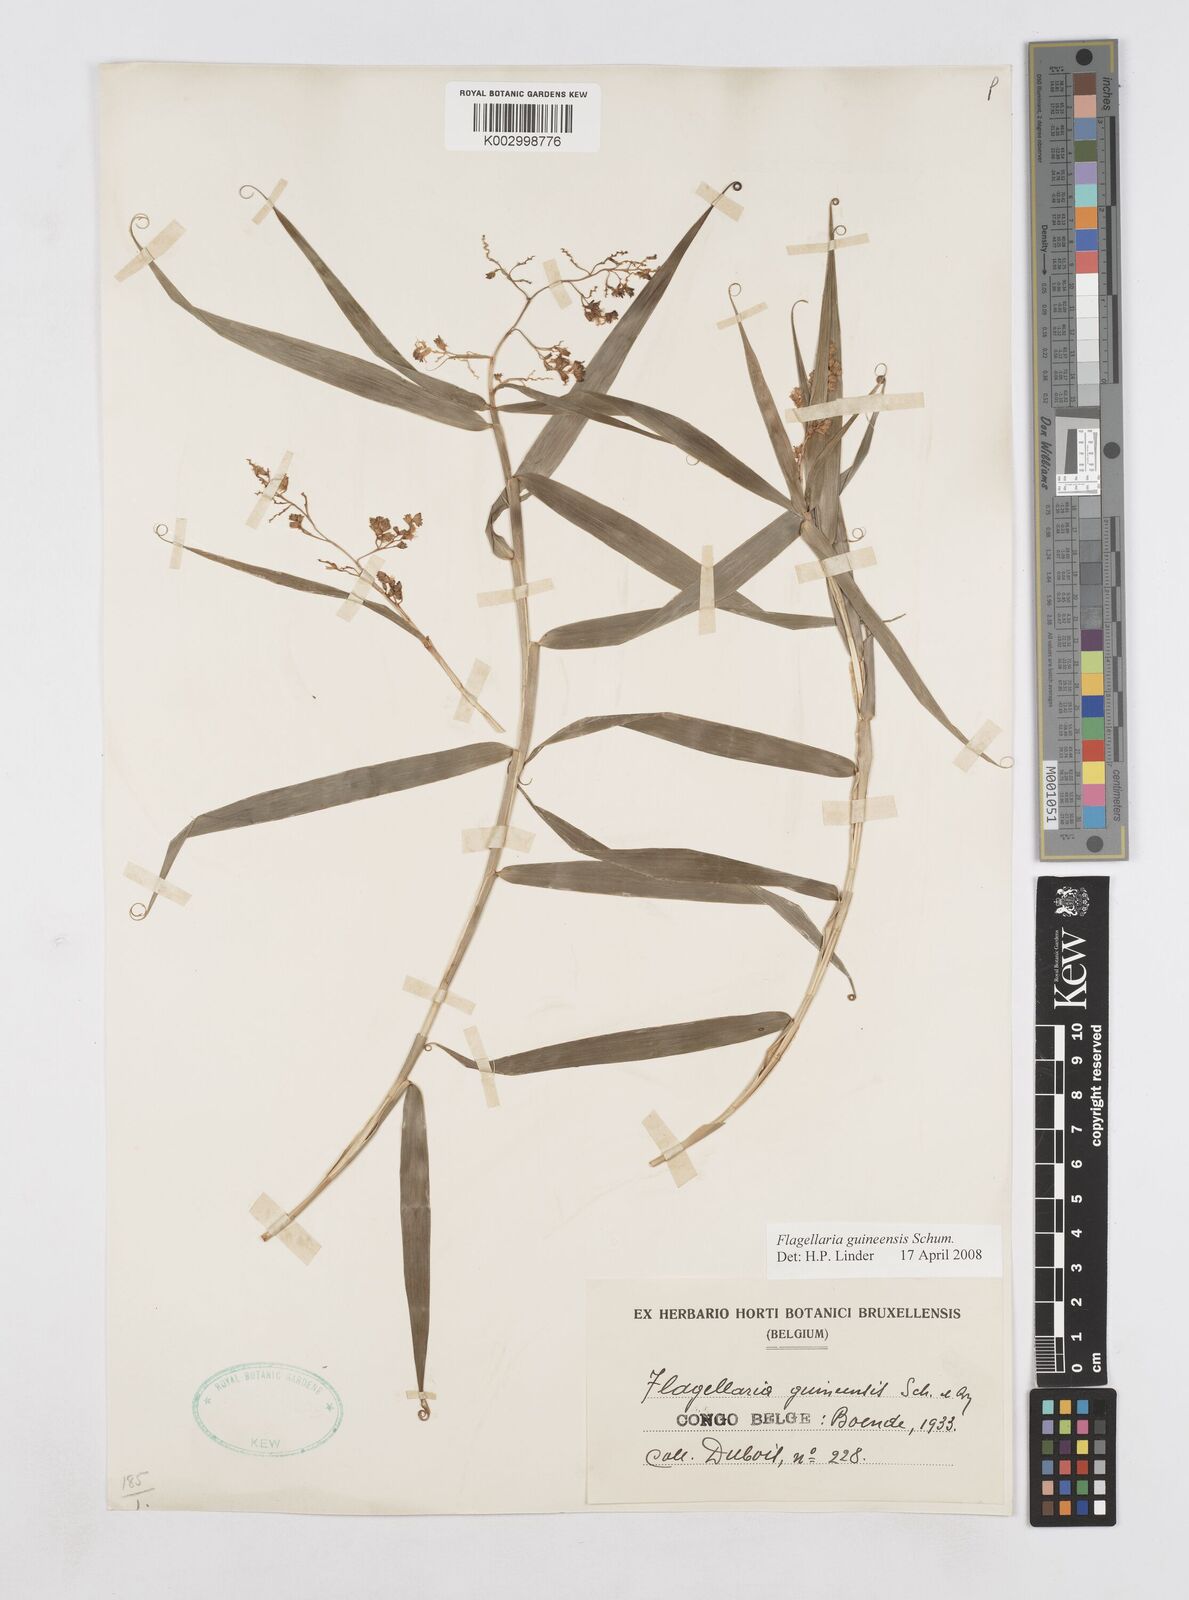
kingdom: Plantae
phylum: Tracheophyta
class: Liliopsida
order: Poales
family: Flagellariaceae
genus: Flagellaria
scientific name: Flagellaria guineensis
